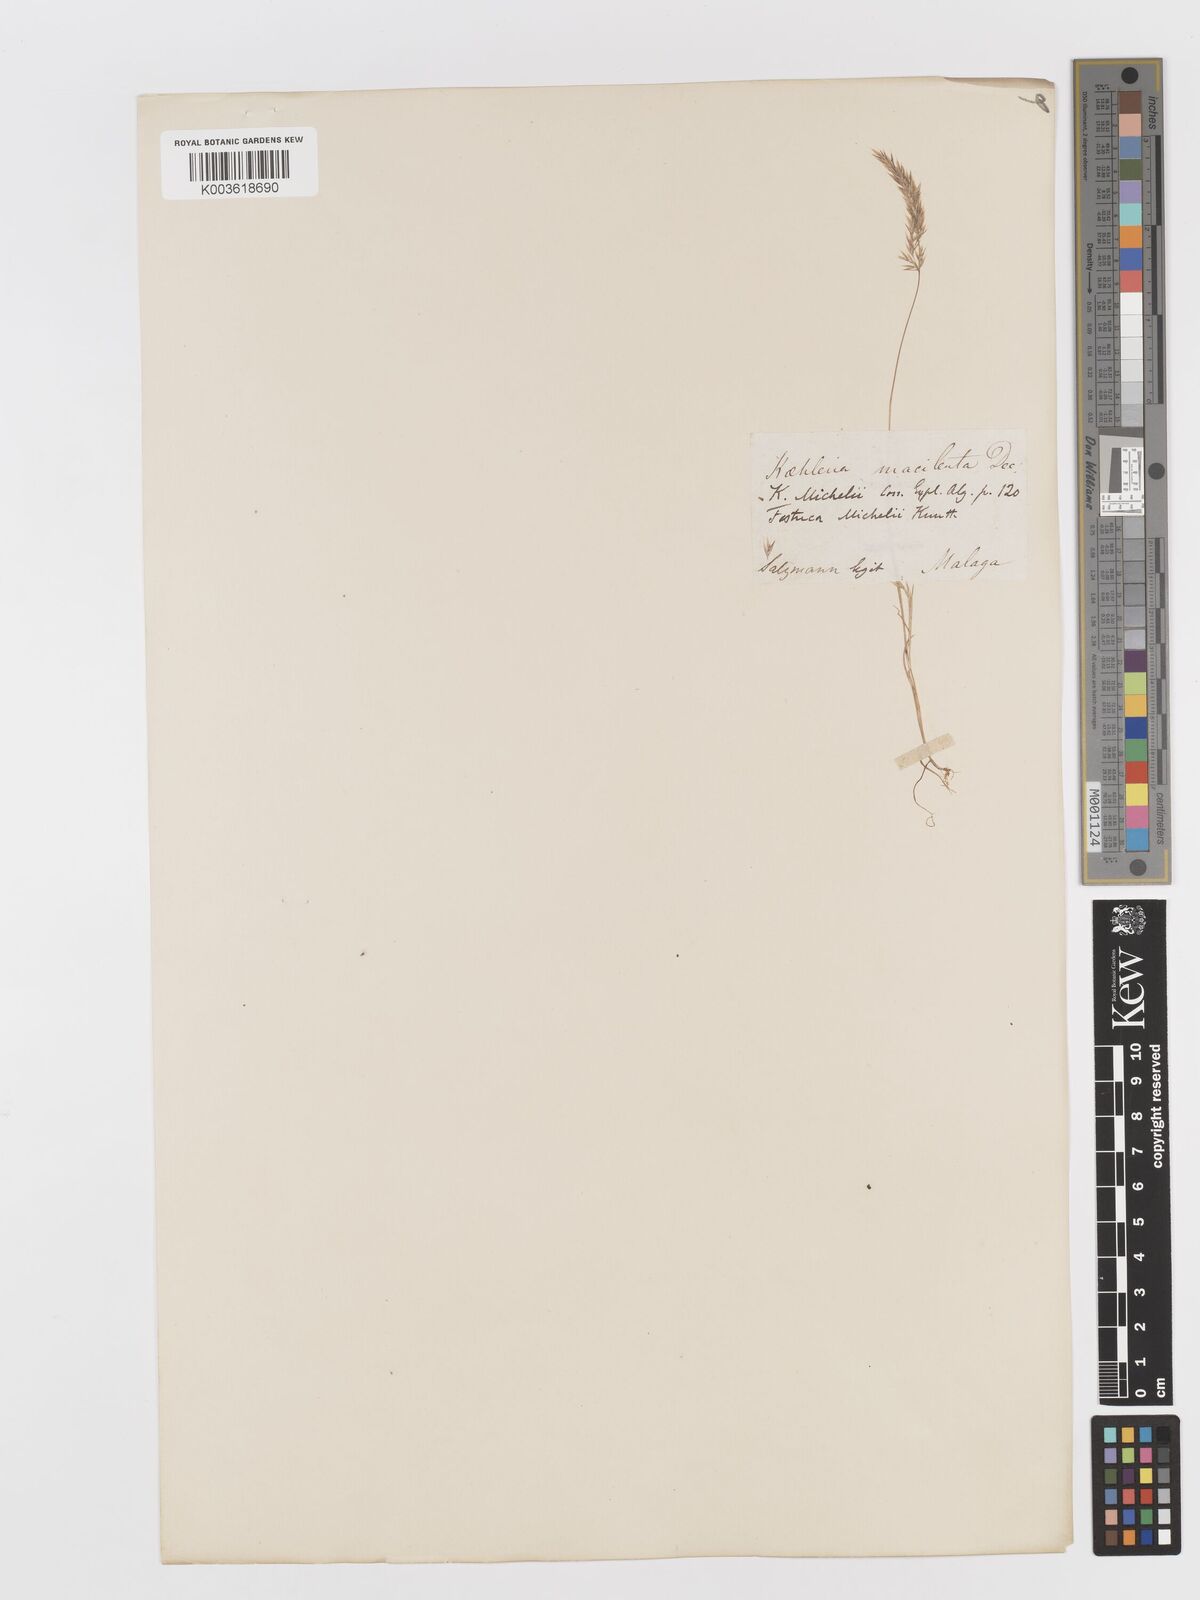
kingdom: Plantae
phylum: Tracheophyta
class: Liliopsida
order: Poales
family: Poaceae
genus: Avellinia
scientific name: Avellinia festucoides
